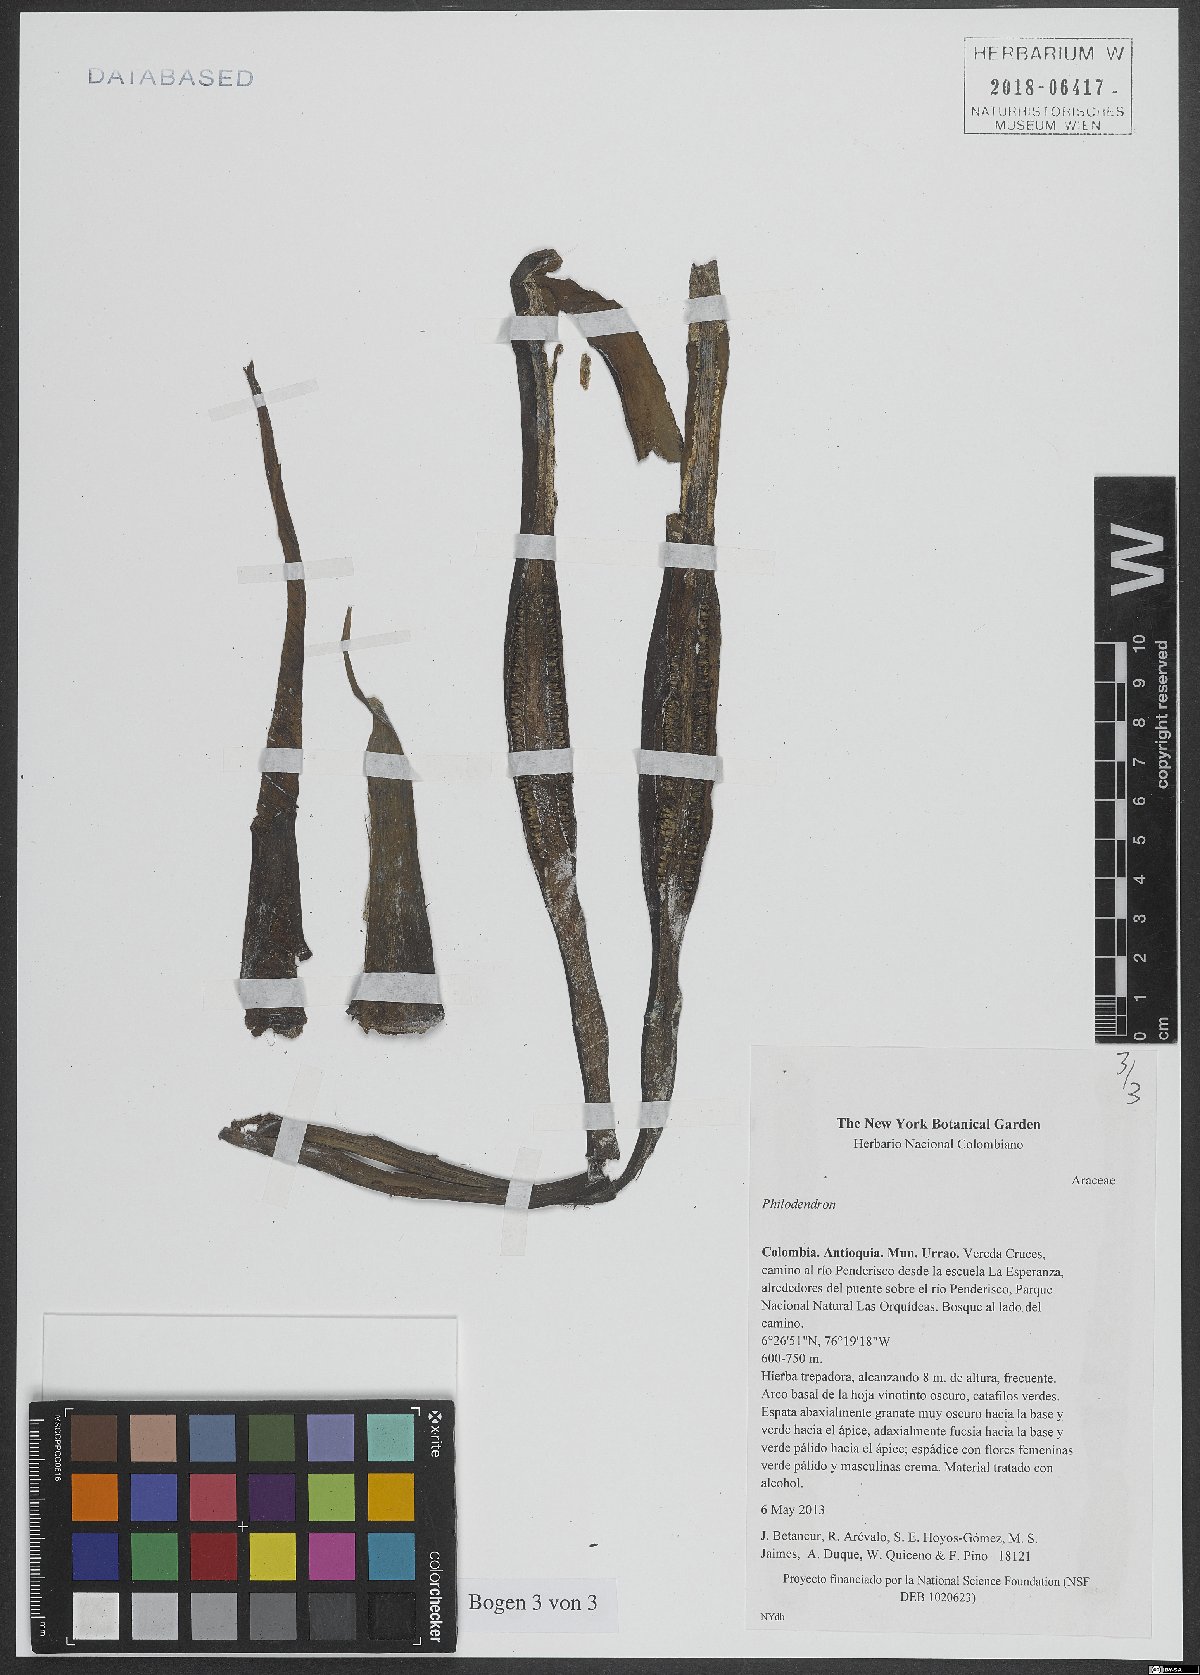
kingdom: Plantae
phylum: Tracheophyta
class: Liliopsida
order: Alismatales
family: Araceae
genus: Philodendron
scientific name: Philodendron
